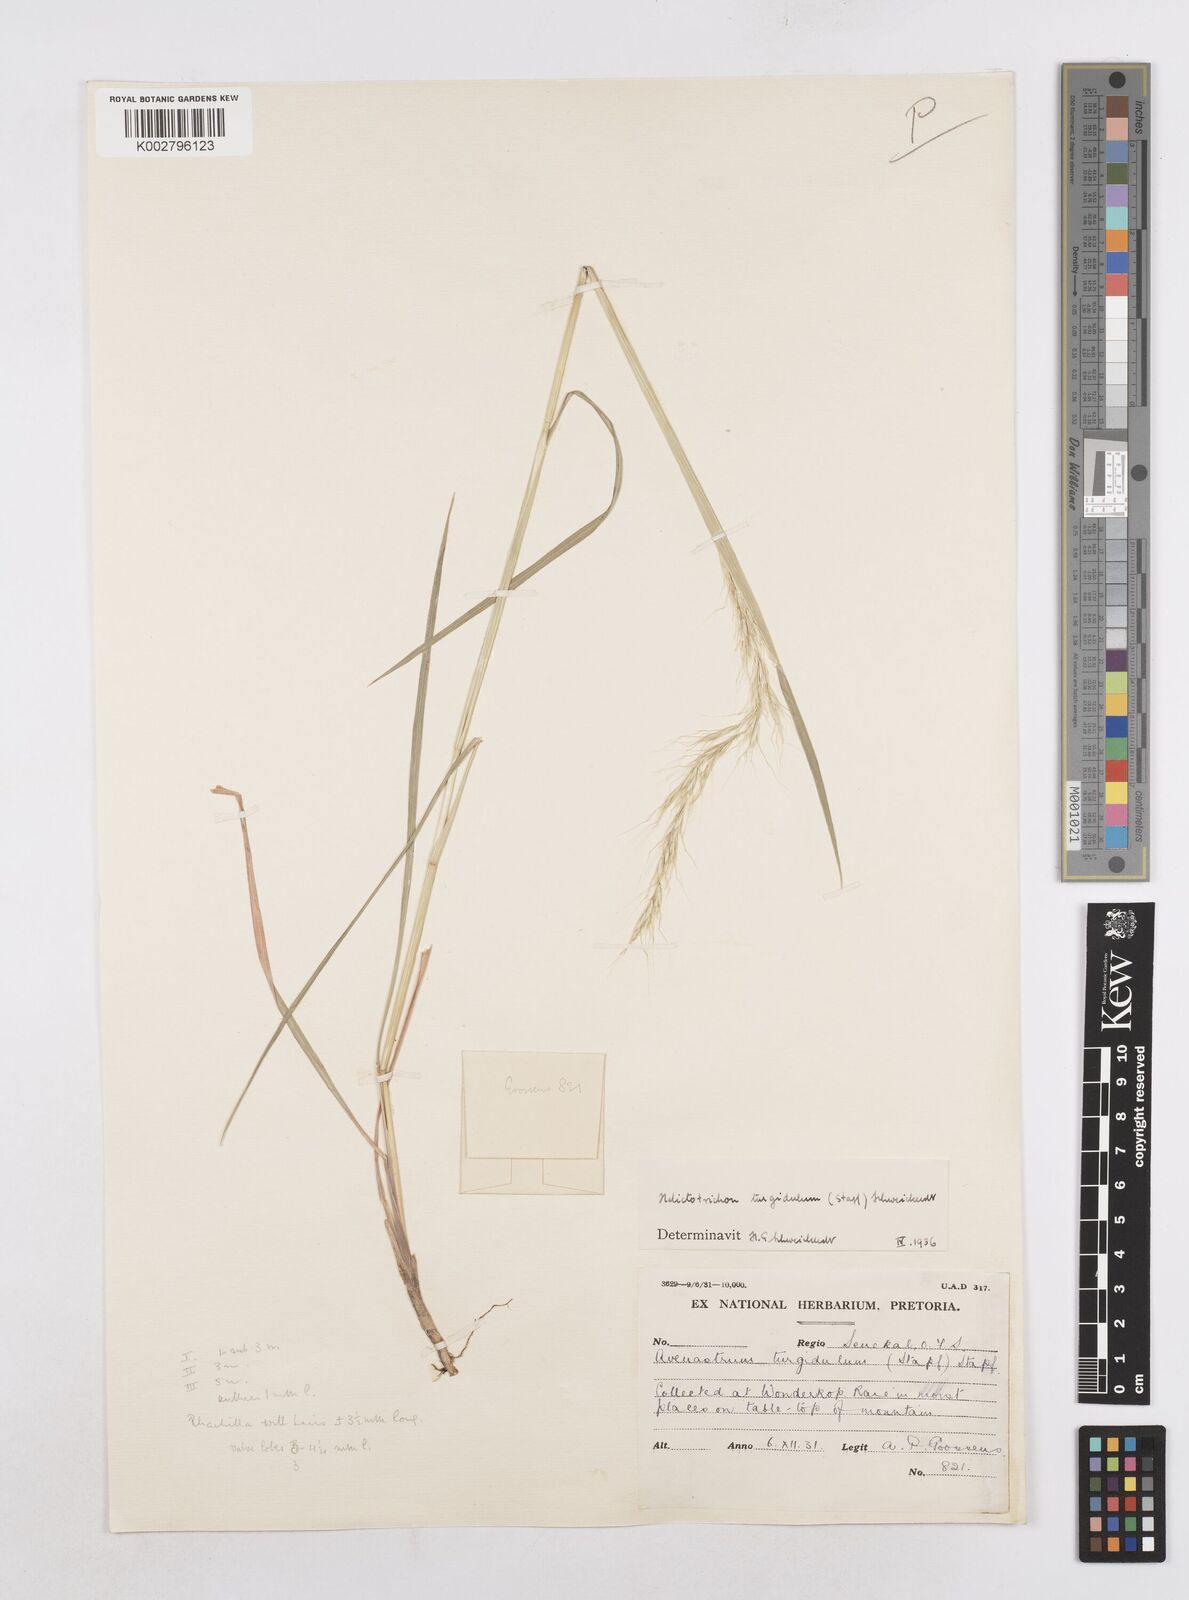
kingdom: Plantae
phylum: Tracheophyta
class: Liliopsida
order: Poales
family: Poaceae
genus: Trisetopsis
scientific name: Trisetopsis imberbis
